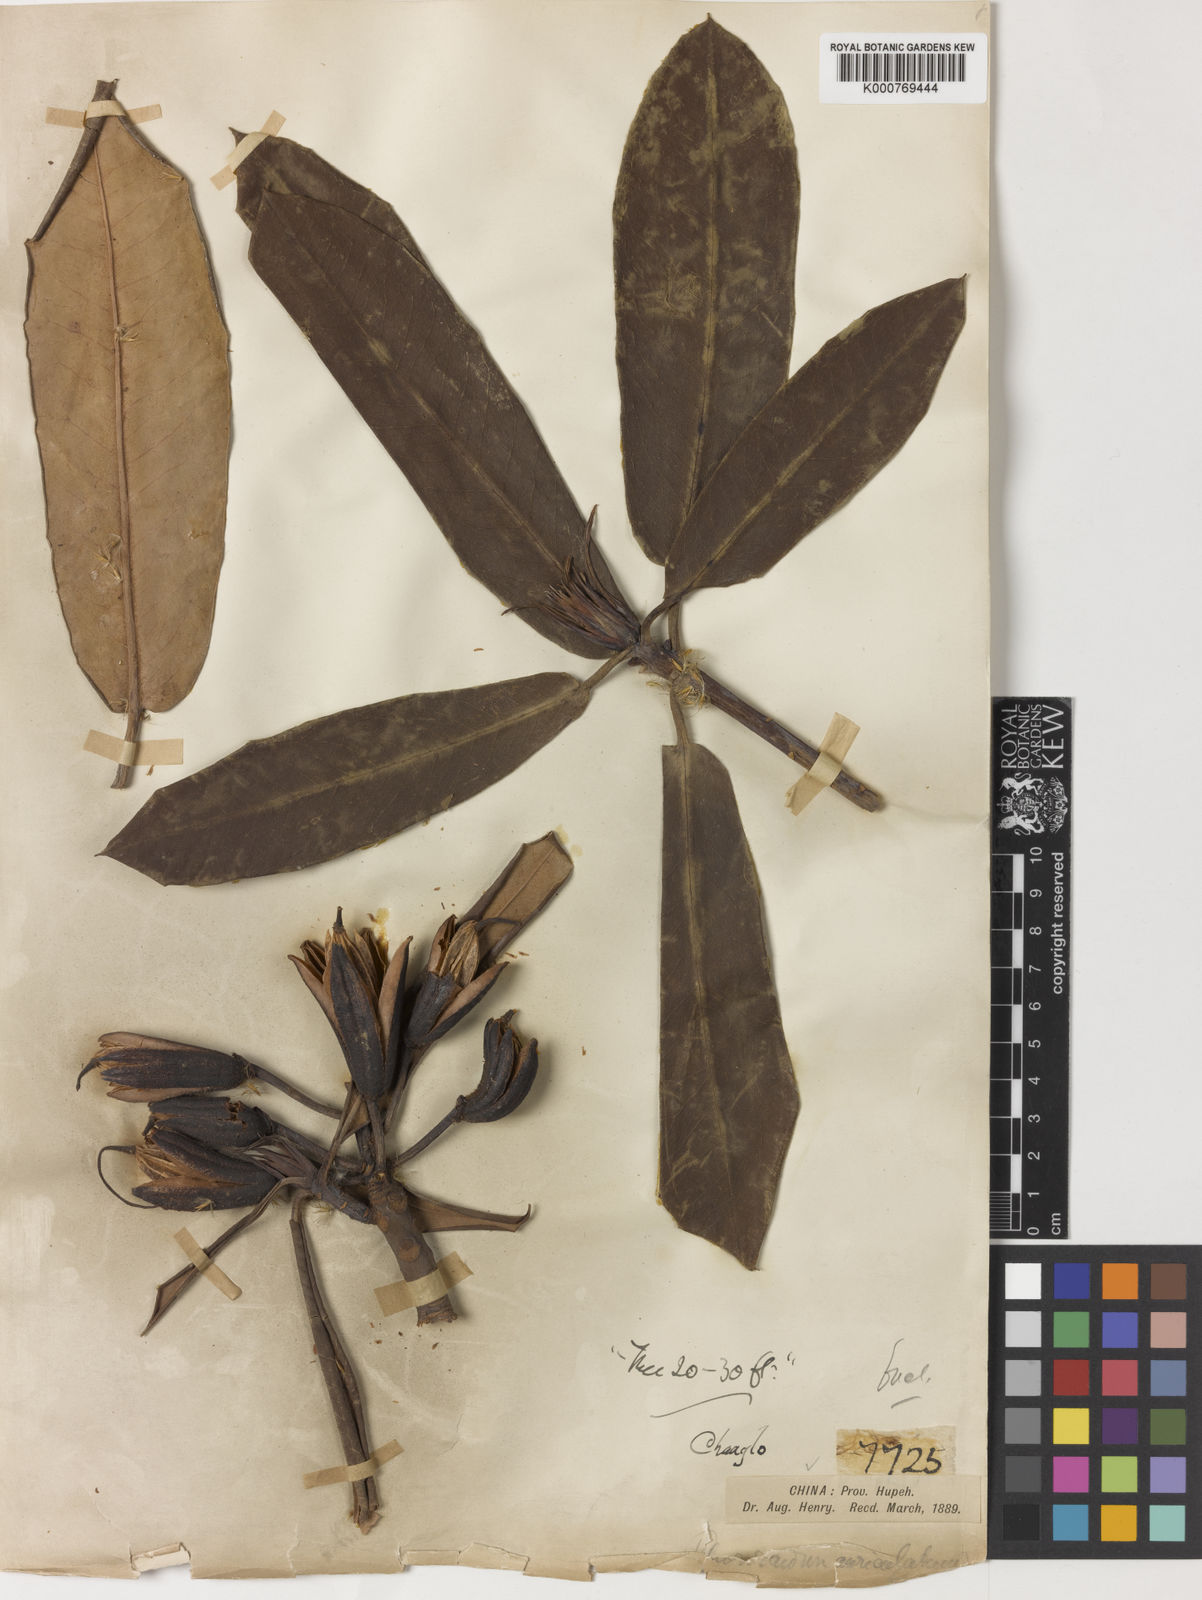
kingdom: Plantae
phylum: Tracheophyta
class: Magnoliopsida
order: Ericales
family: Ericaceae
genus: Rhododendron
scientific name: Rhododendron auriculatum
